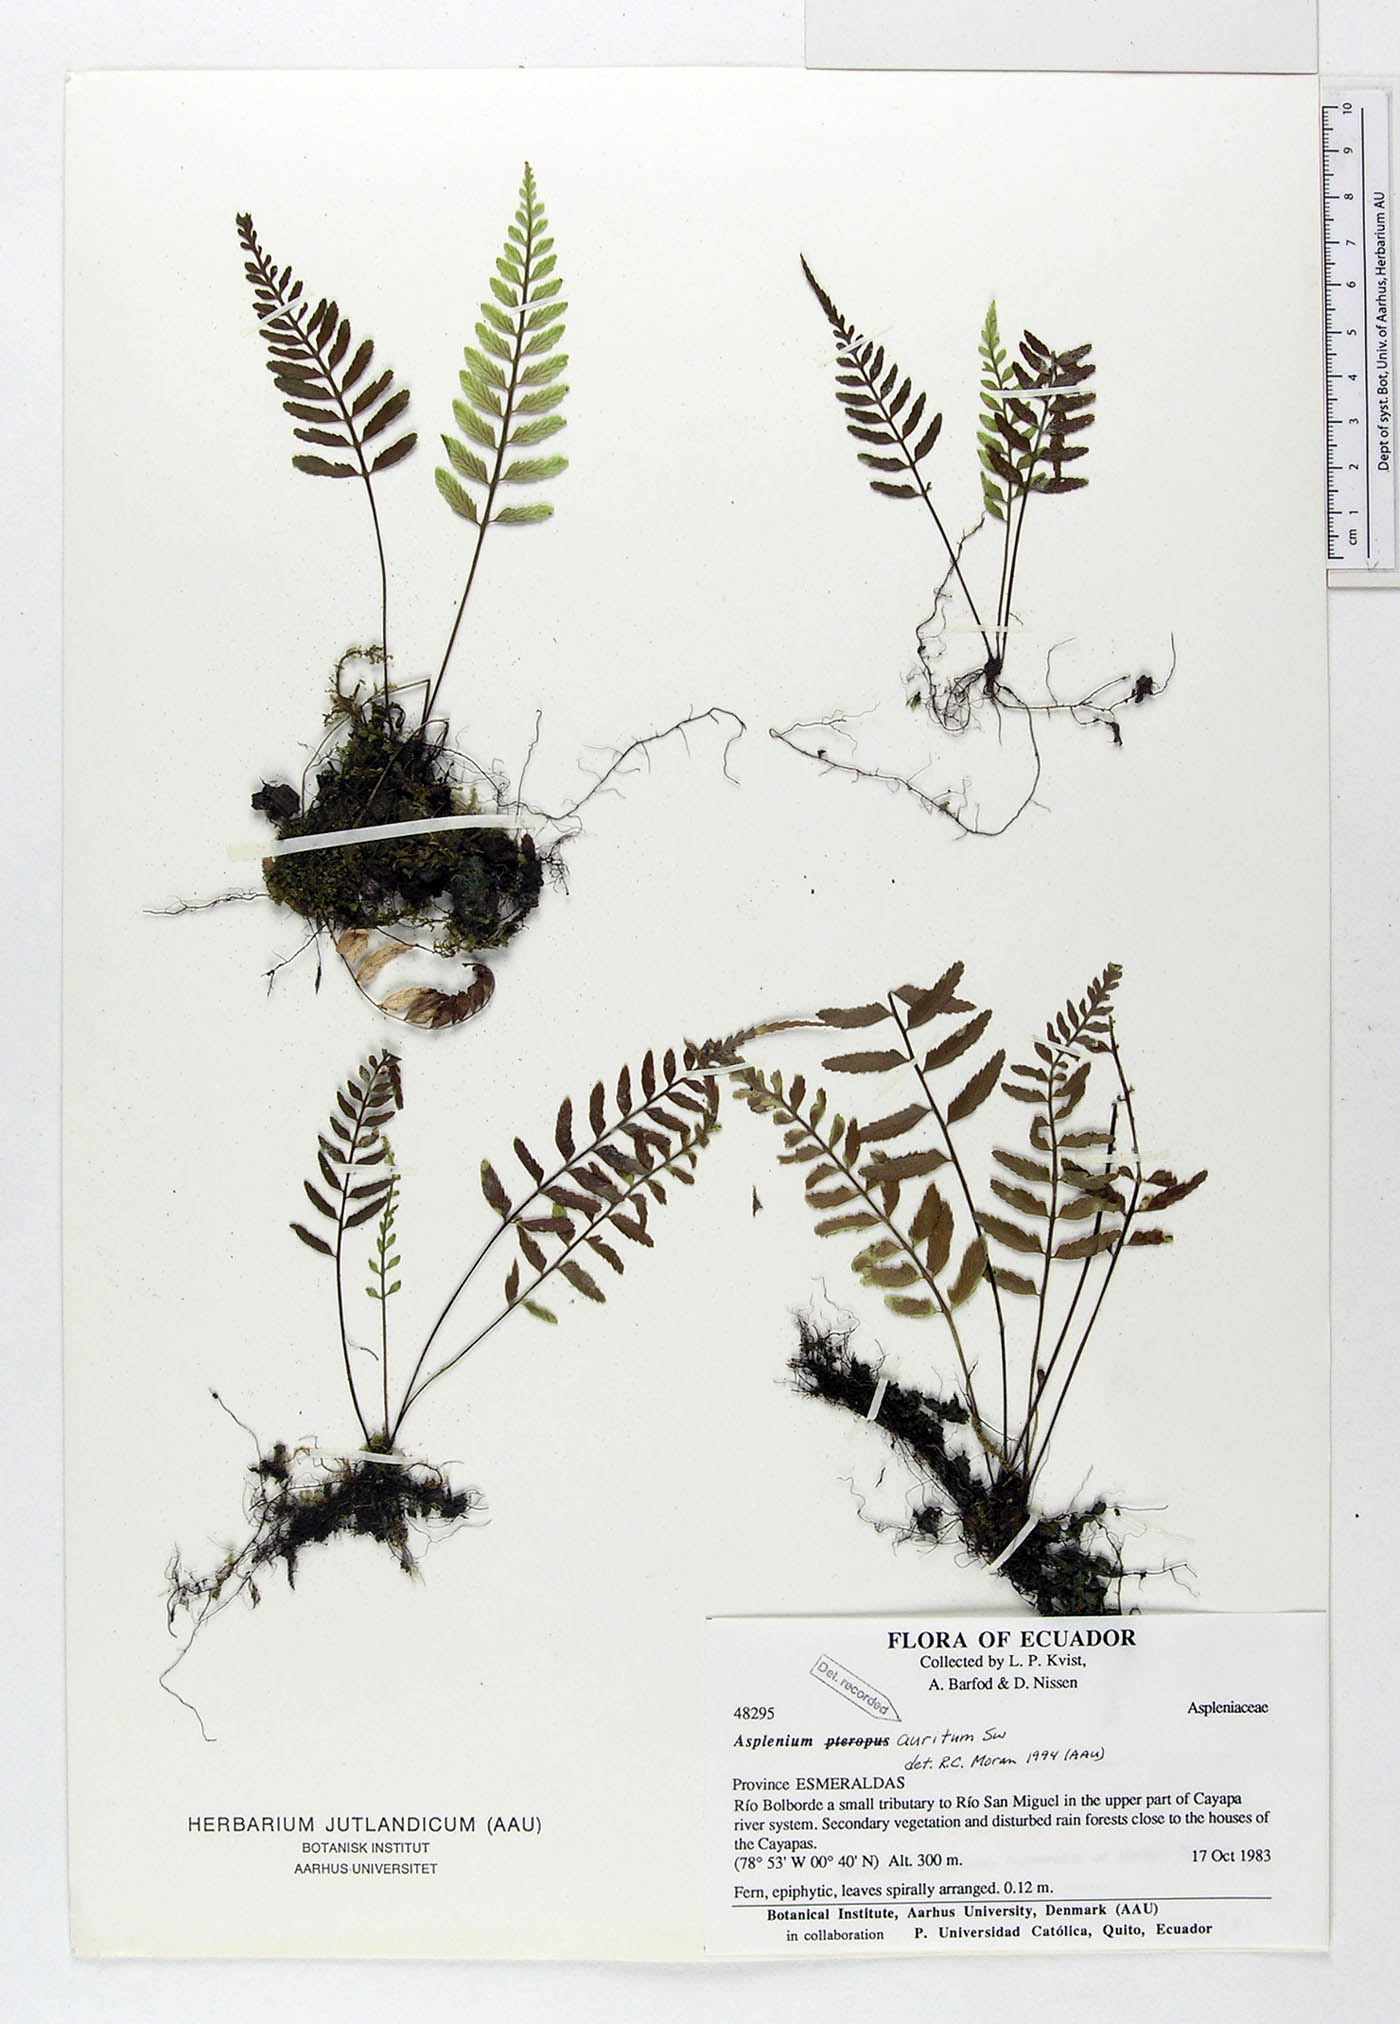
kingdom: Plantae
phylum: Tracheophyta
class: Polypodiopsida
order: Polypodiales
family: Aspleniaceae
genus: Asplenium
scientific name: Asplenium auritum
